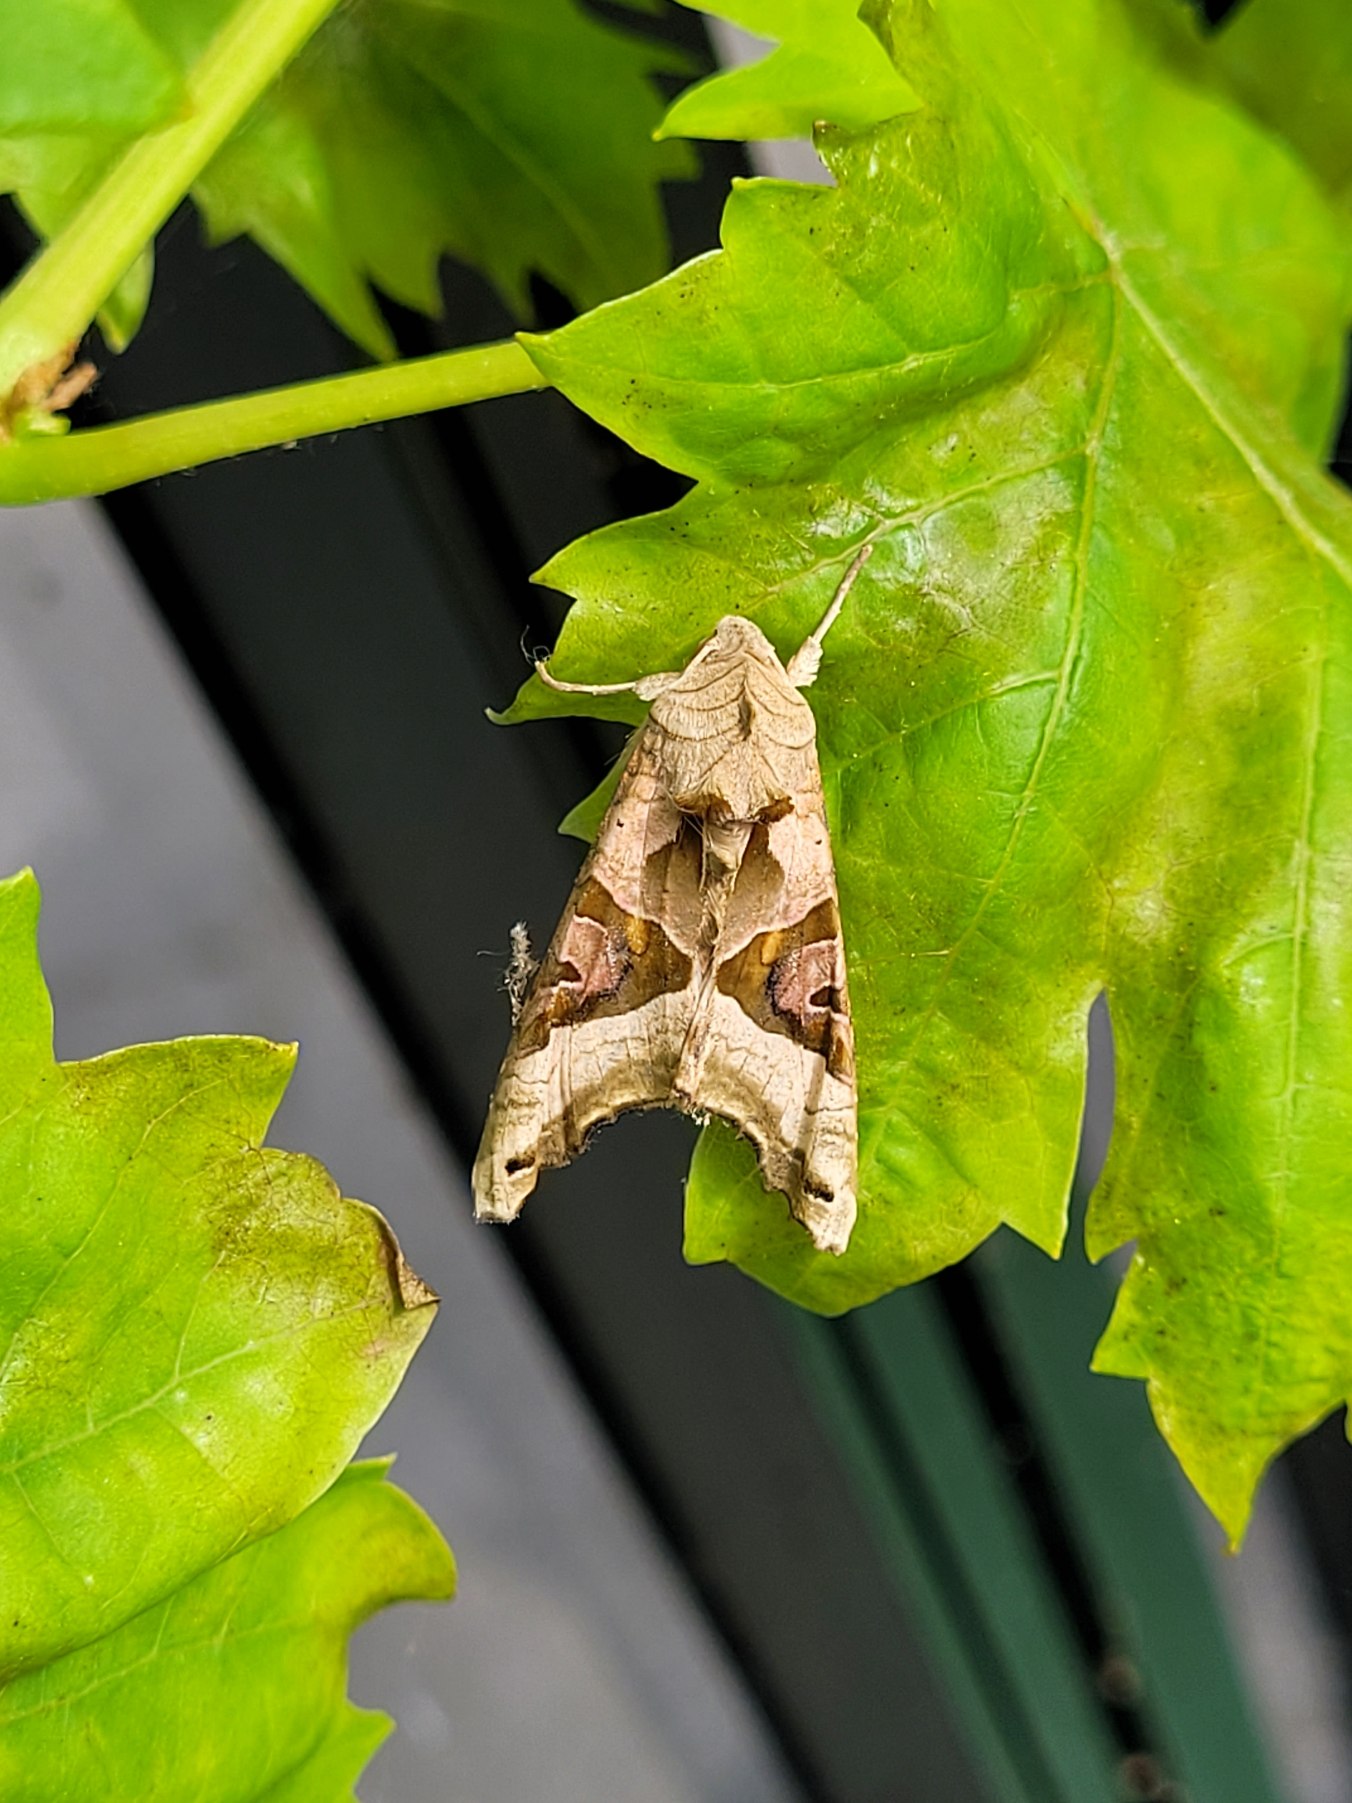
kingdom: Animalia
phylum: Arthropoda
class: Insecta
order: Lepidoptera
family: Noctuidae
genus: Phlogophora
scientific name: Phlogophora meticulosa
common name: Agatugle
